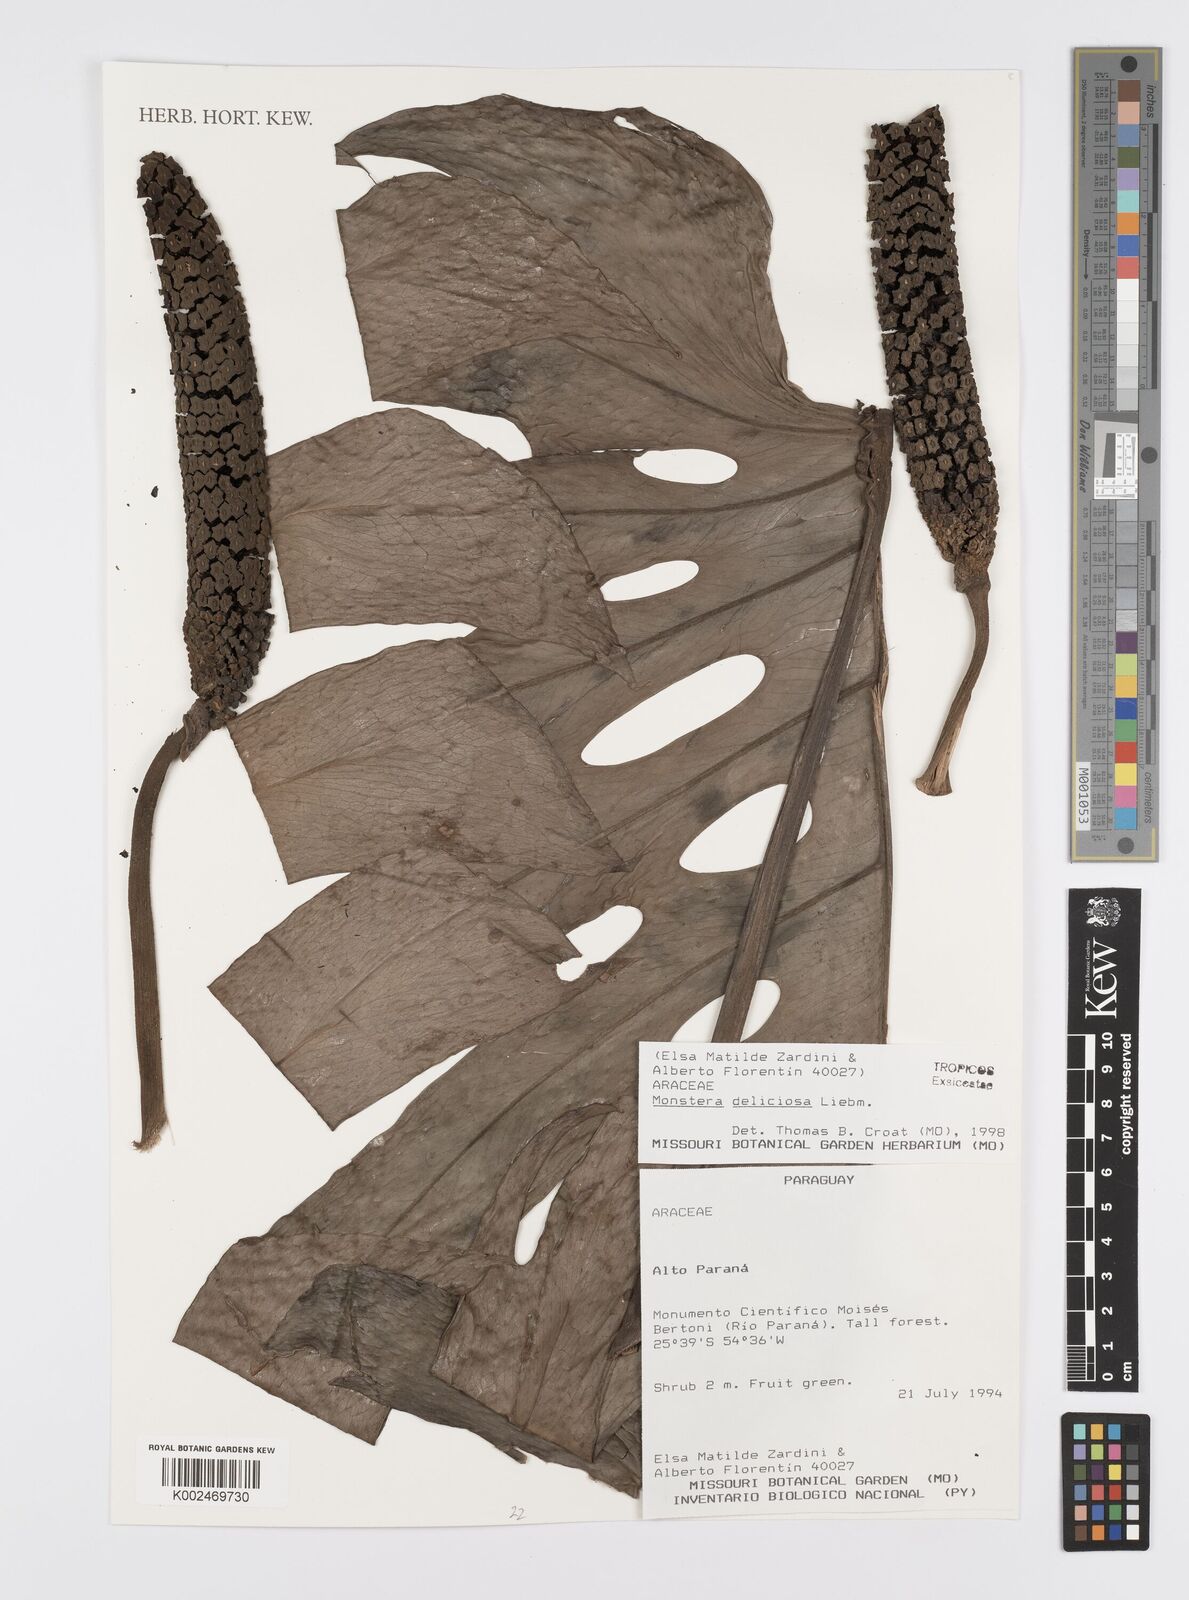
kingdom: Plantae
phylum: Tracheophyta
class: Liliopsida
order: Alismatales
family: Araceae
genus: Monstera
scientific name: Monstera deliciosa
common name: Cut-leaf-philodendron
